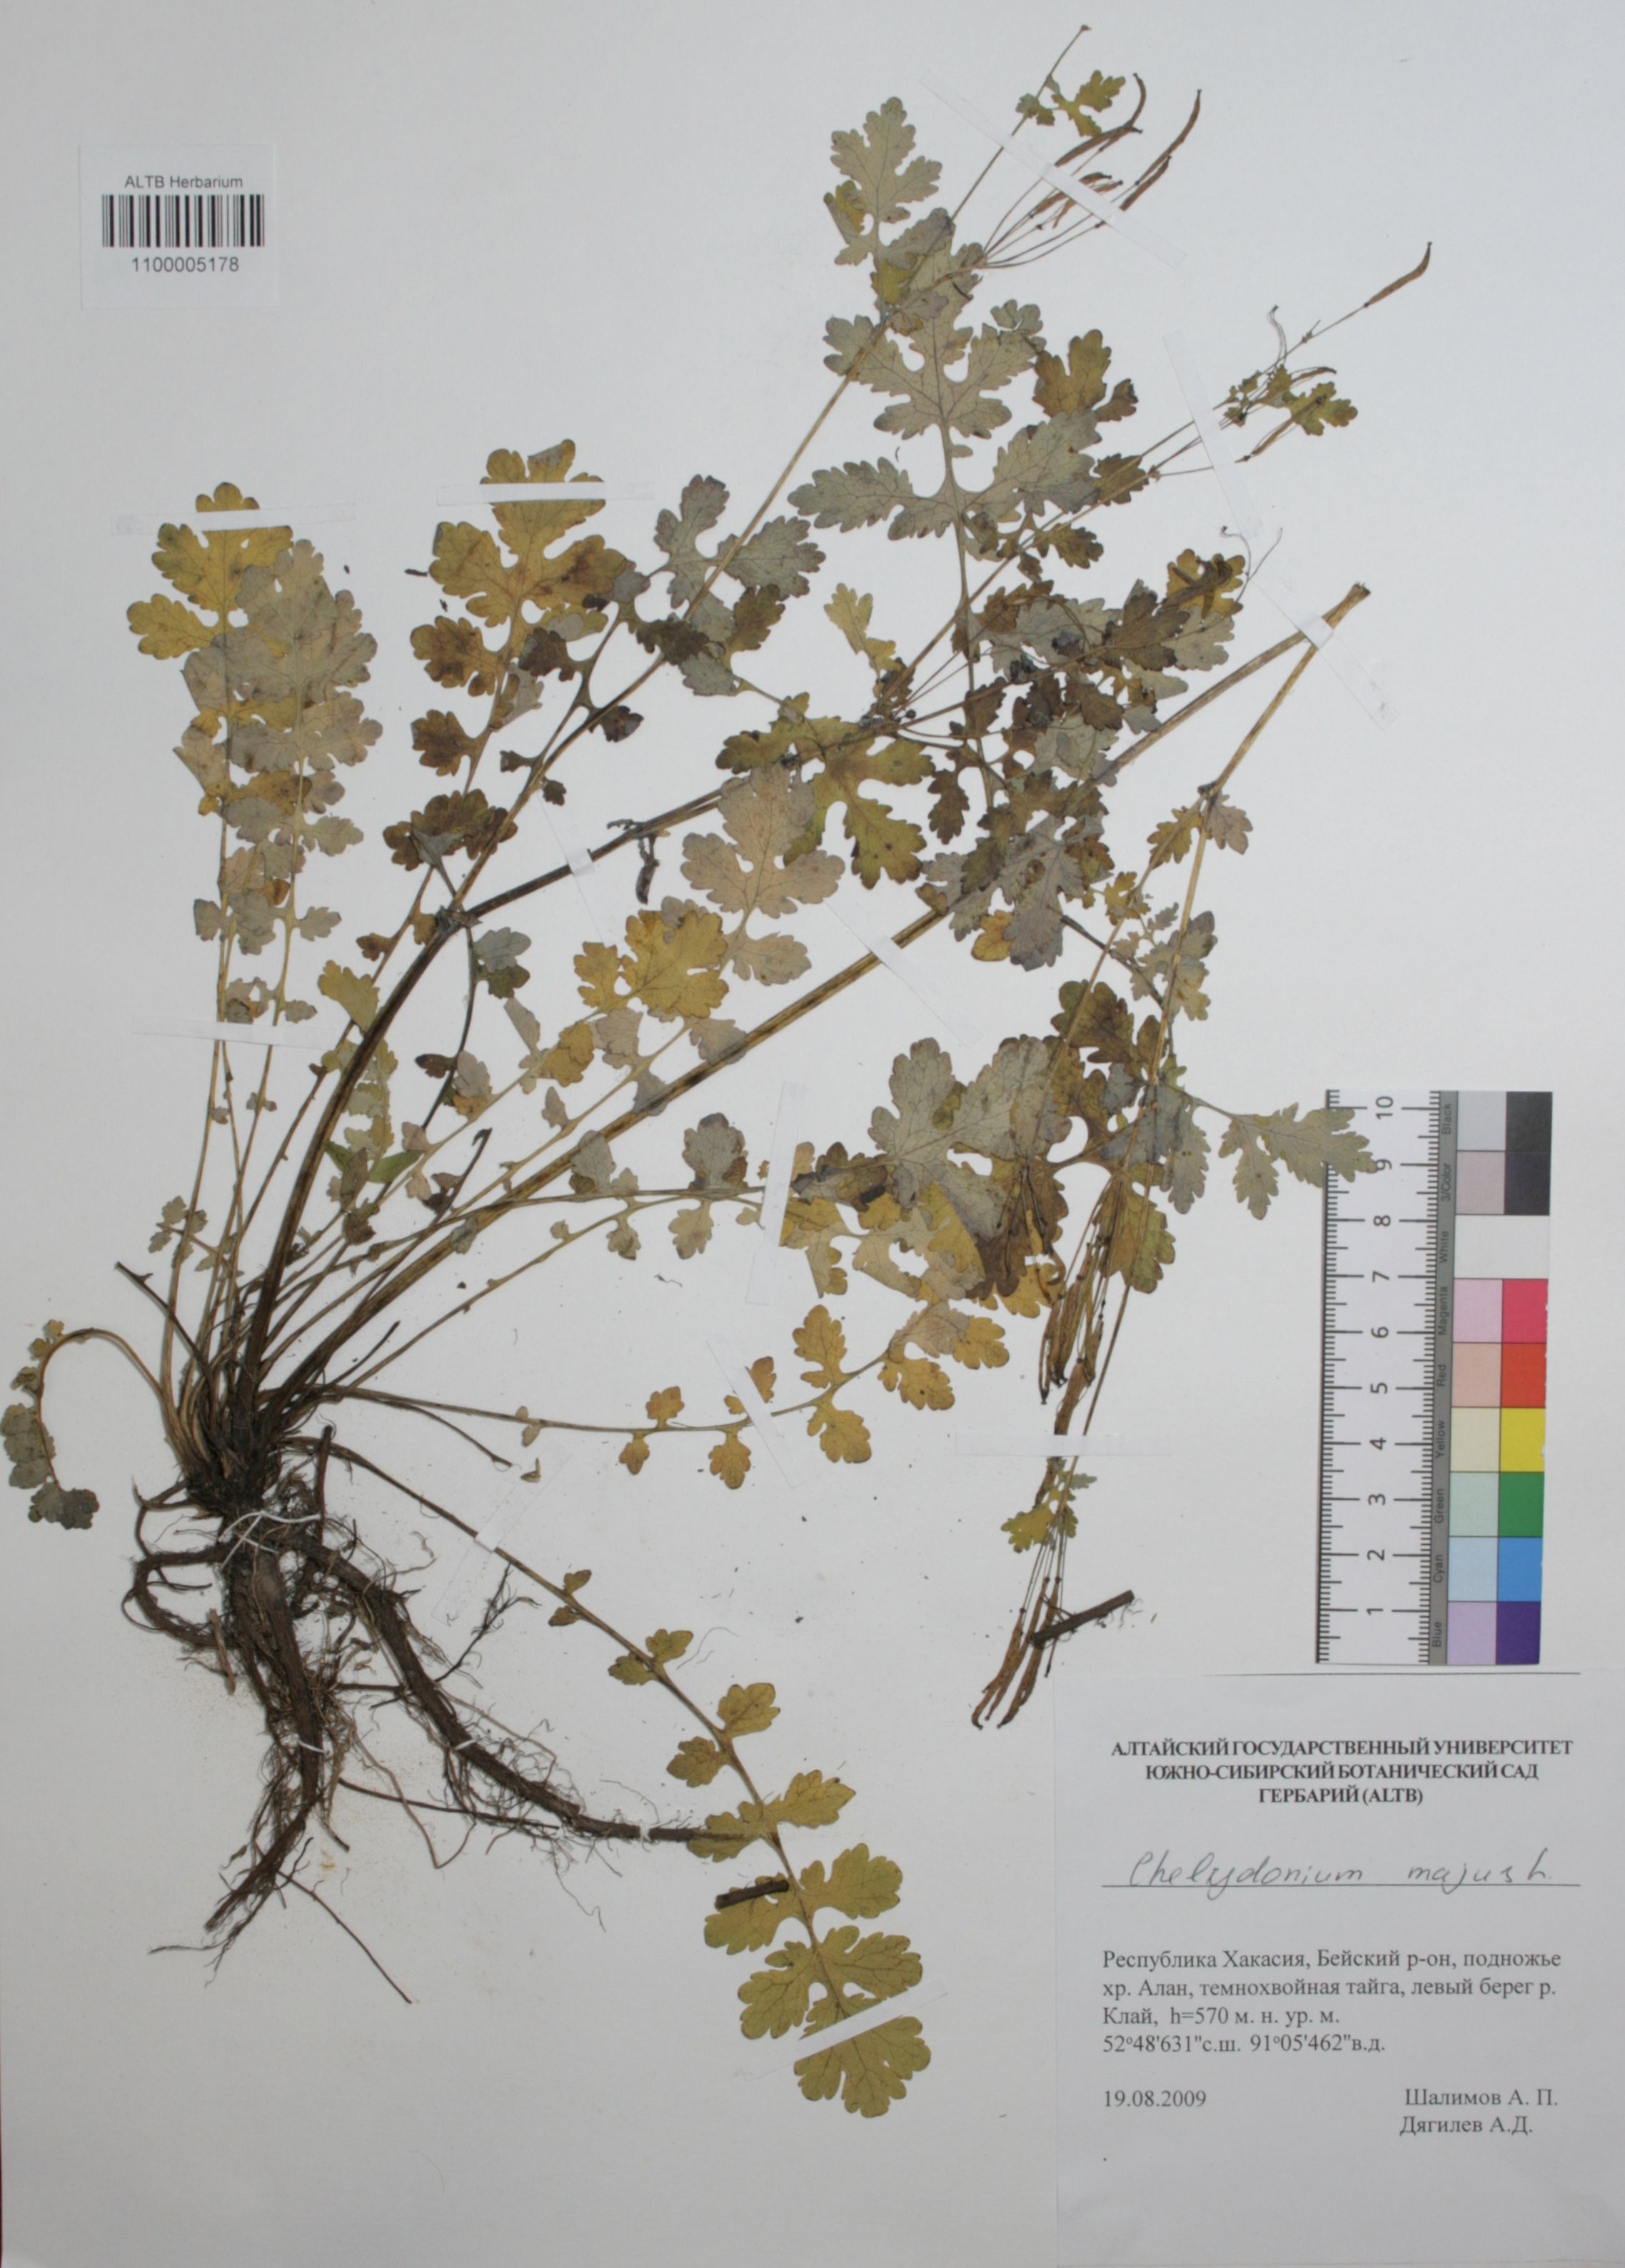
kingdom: Plantae
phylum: Tracheophyta
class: Magnoliopsida
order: Ranunculales
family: Papaveraceae
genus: Chelidonium
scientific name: Chelidonium majus
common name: Greater celandine
